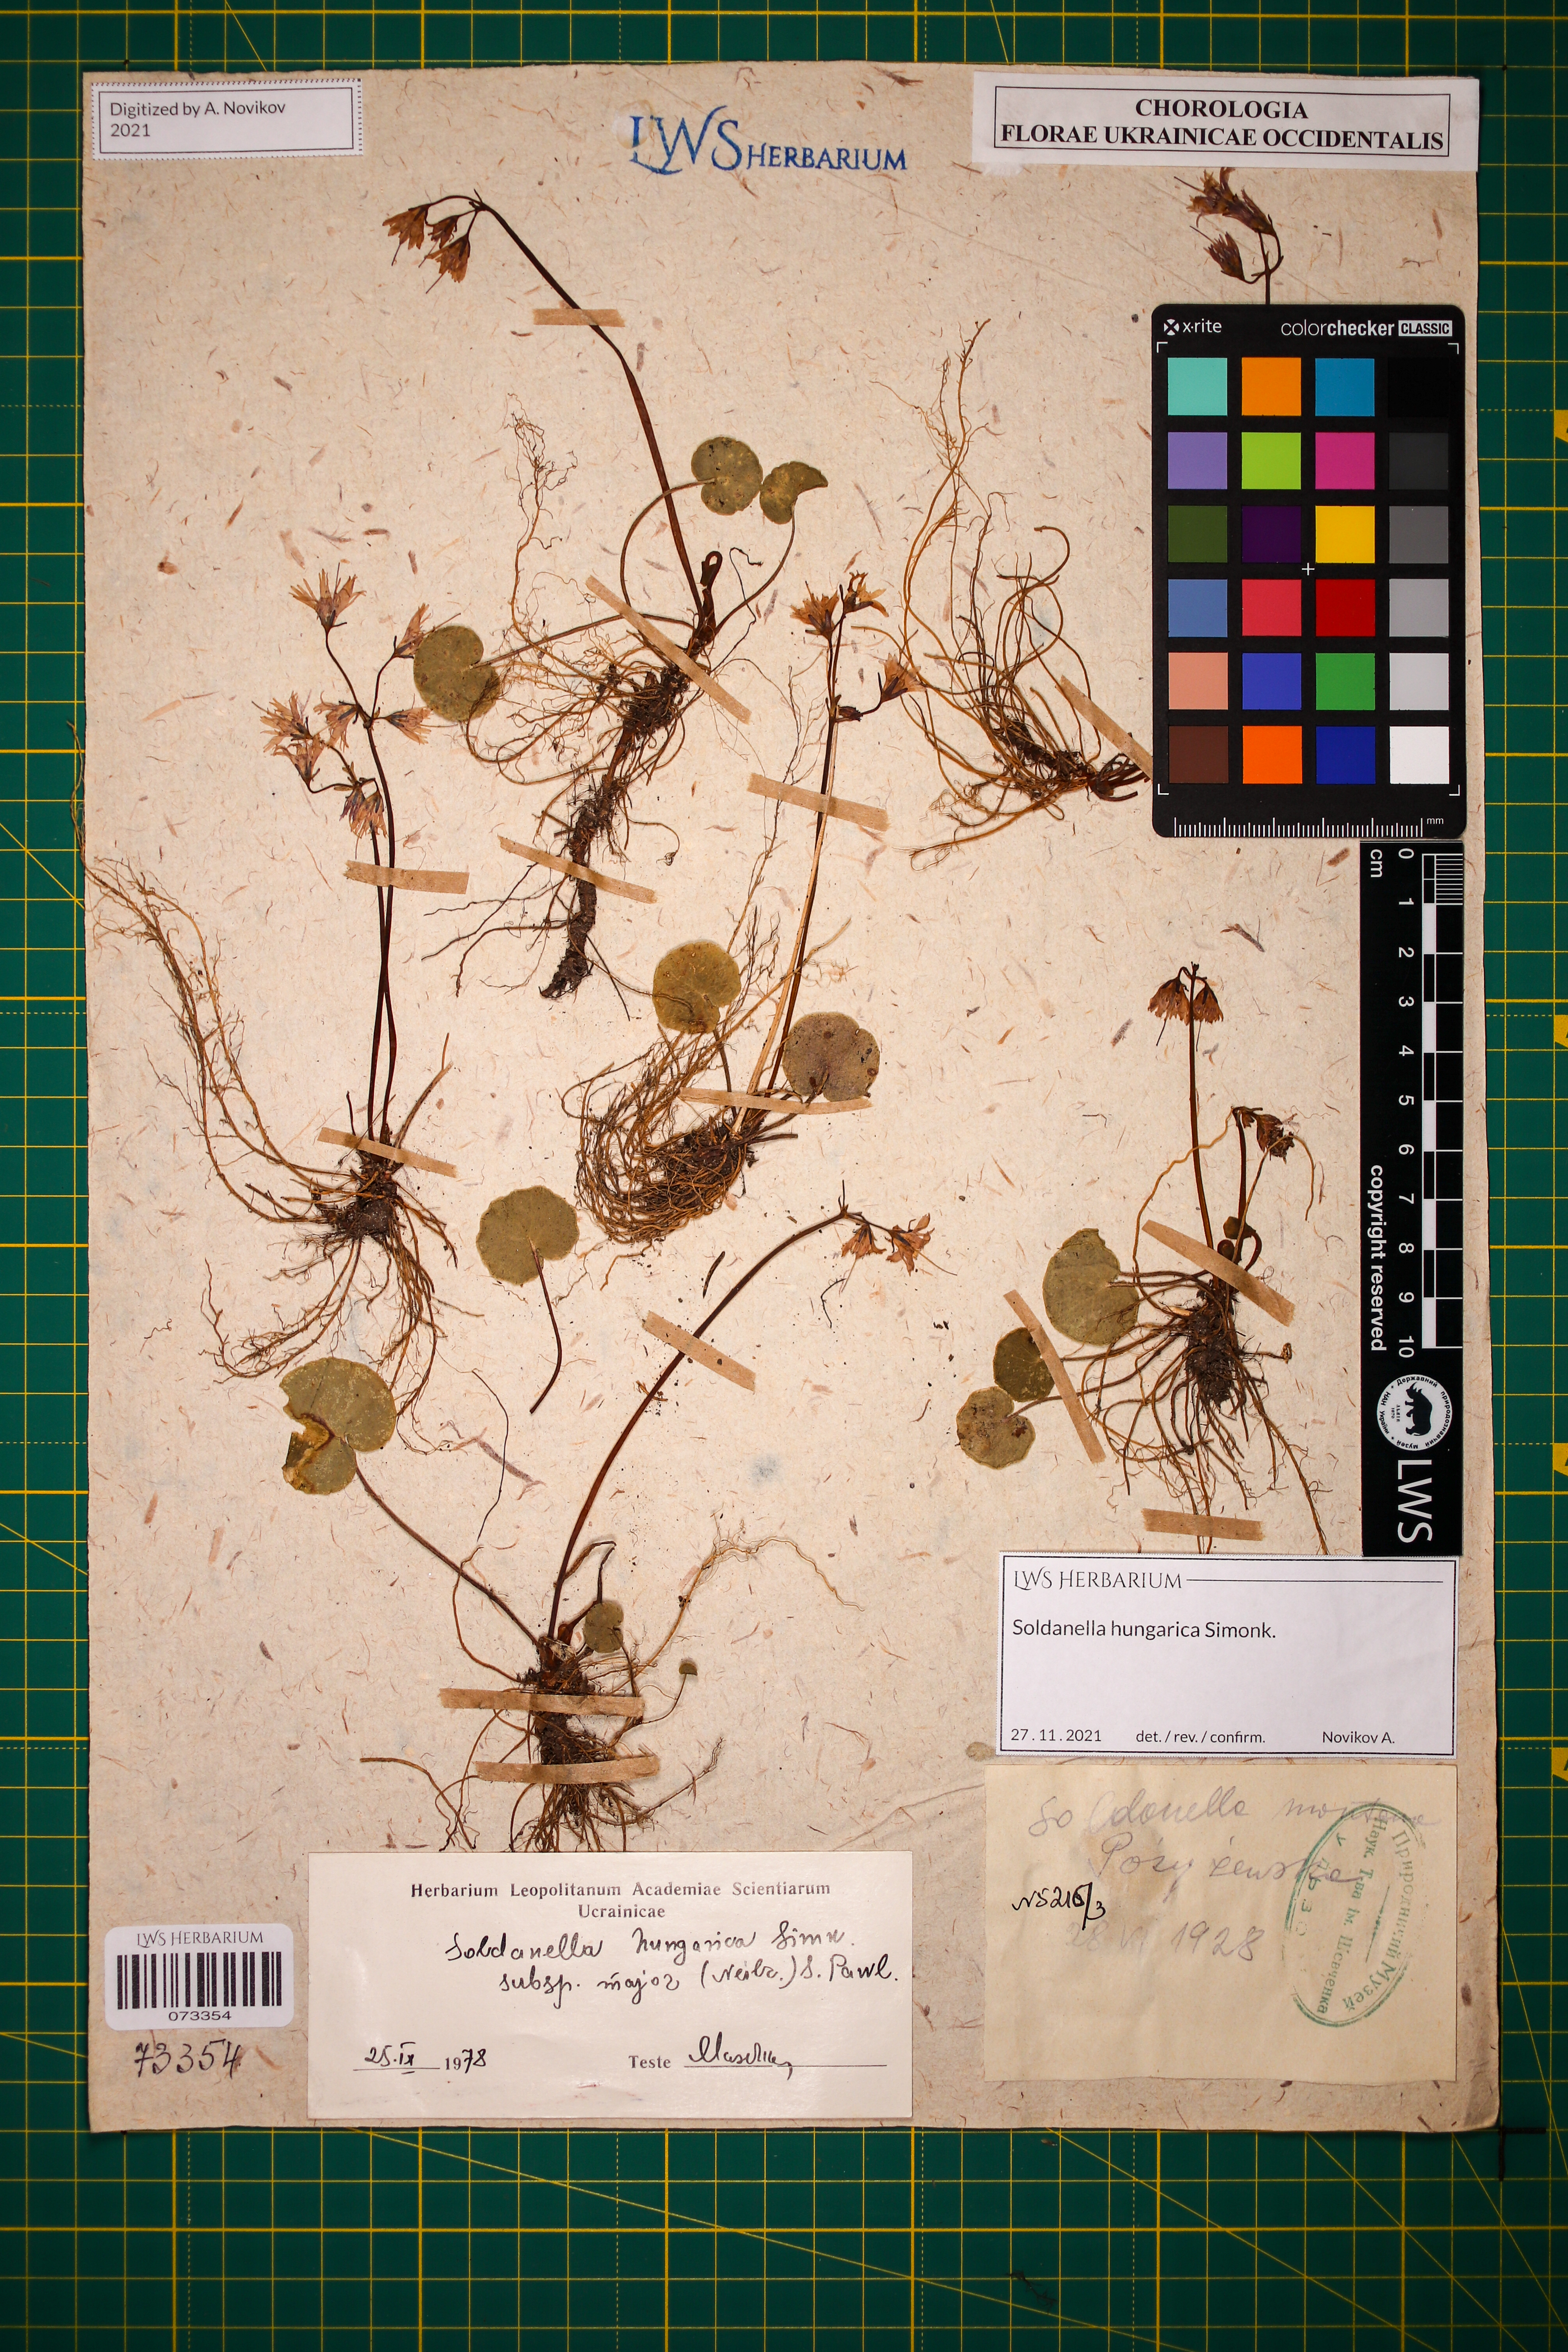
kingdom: Plantae
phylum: Tracheophyta
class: Magnoliopsida
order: Ericales
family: Primulaceae
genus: Soldanella
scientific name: Soldanella hungarica
